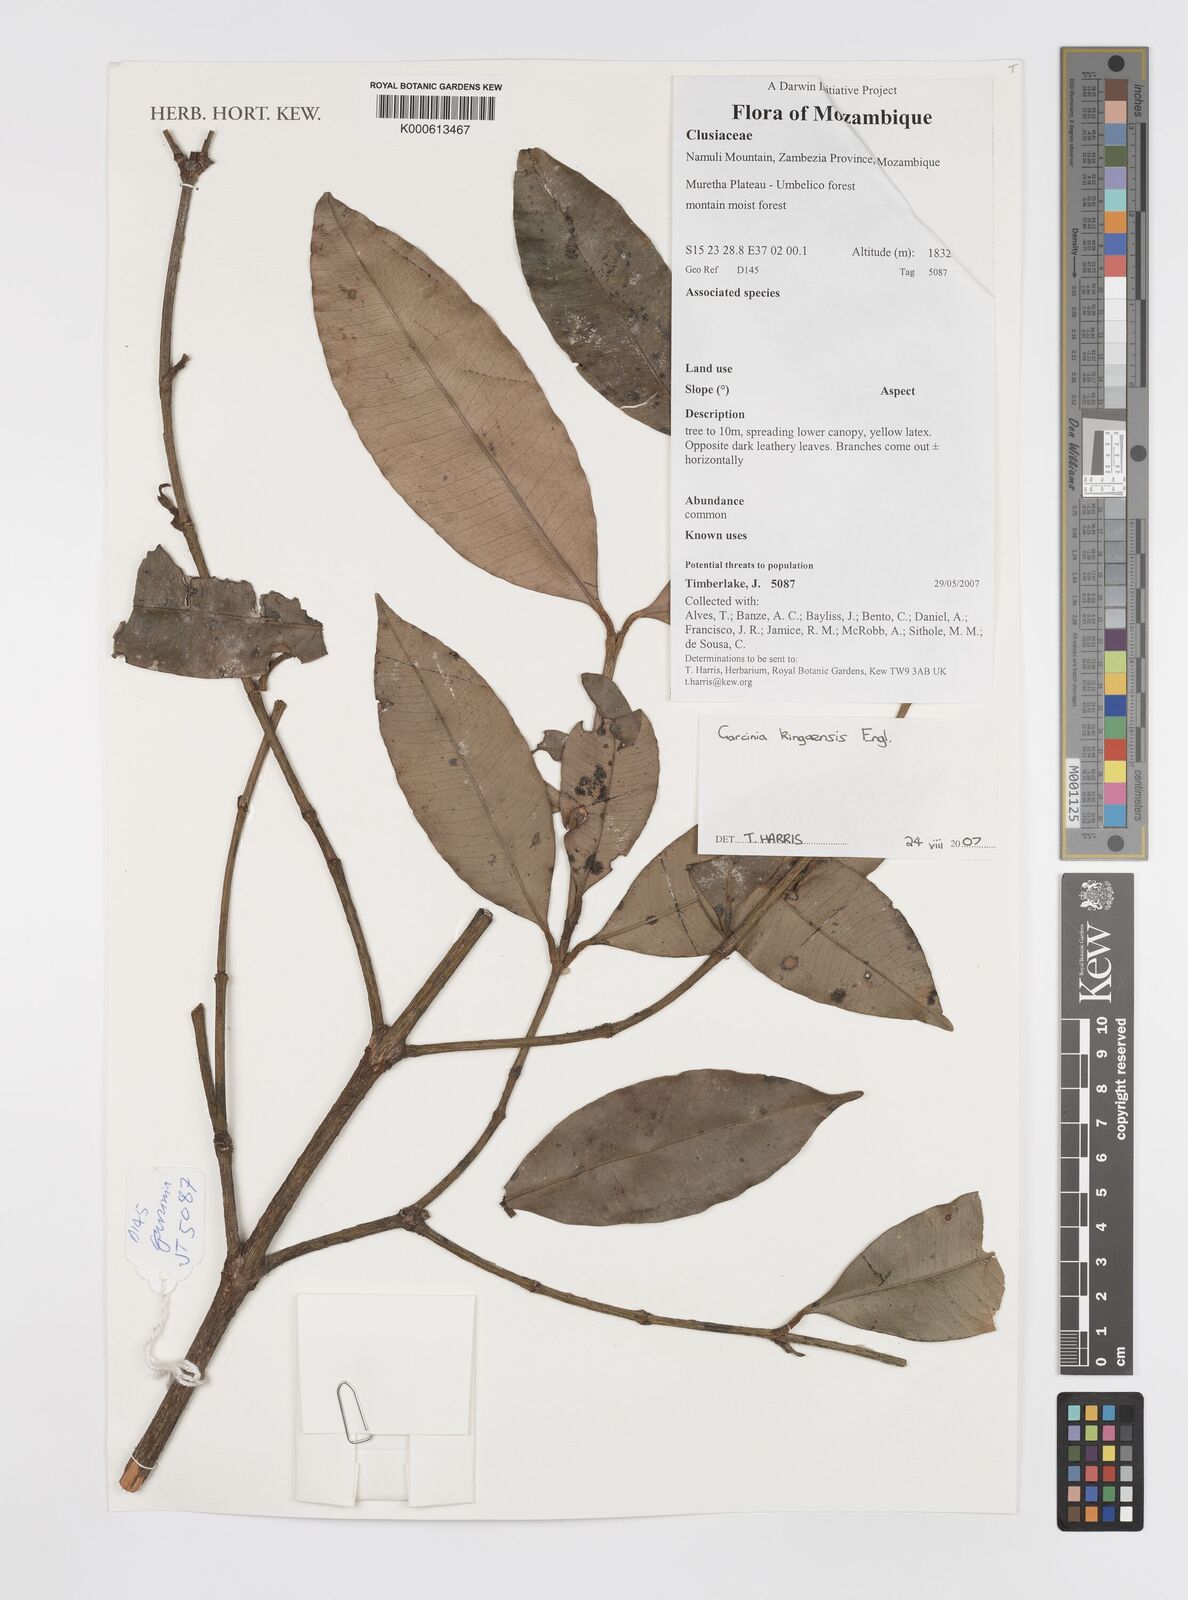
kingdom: Plantae
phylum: Tracheophyta
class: Magnoliopsida
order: Malpighiales
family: Clusiaceae
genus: Garcinia
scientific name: Garcinia kingaensis
